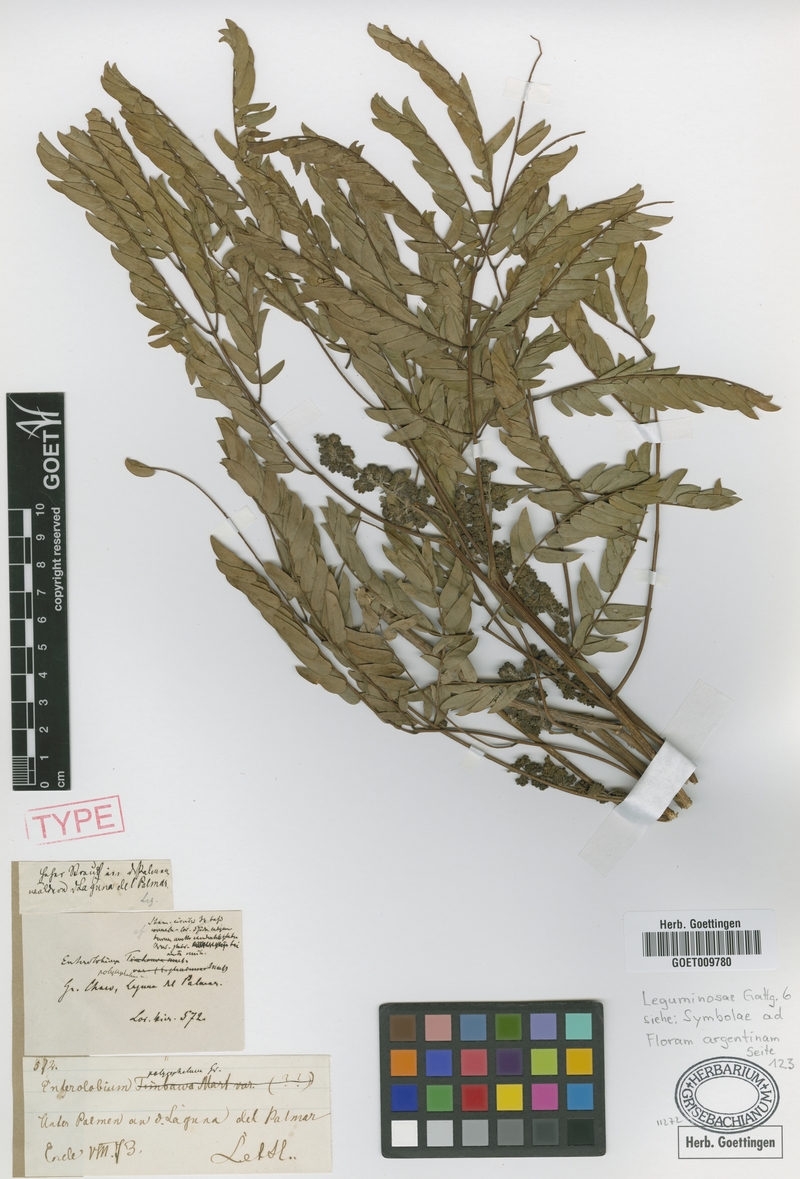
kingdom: Plantae
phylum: Tracheophyta
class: Magnoliopsida
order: Fabales
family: Fabaceae
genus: Albizia
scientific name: Albizia inundata
